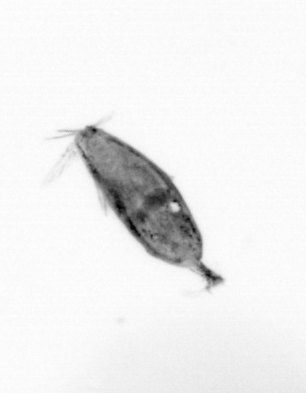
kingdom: Animalia
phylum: Arthropoda
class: Maxillopoda
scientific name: Maxillopoda
